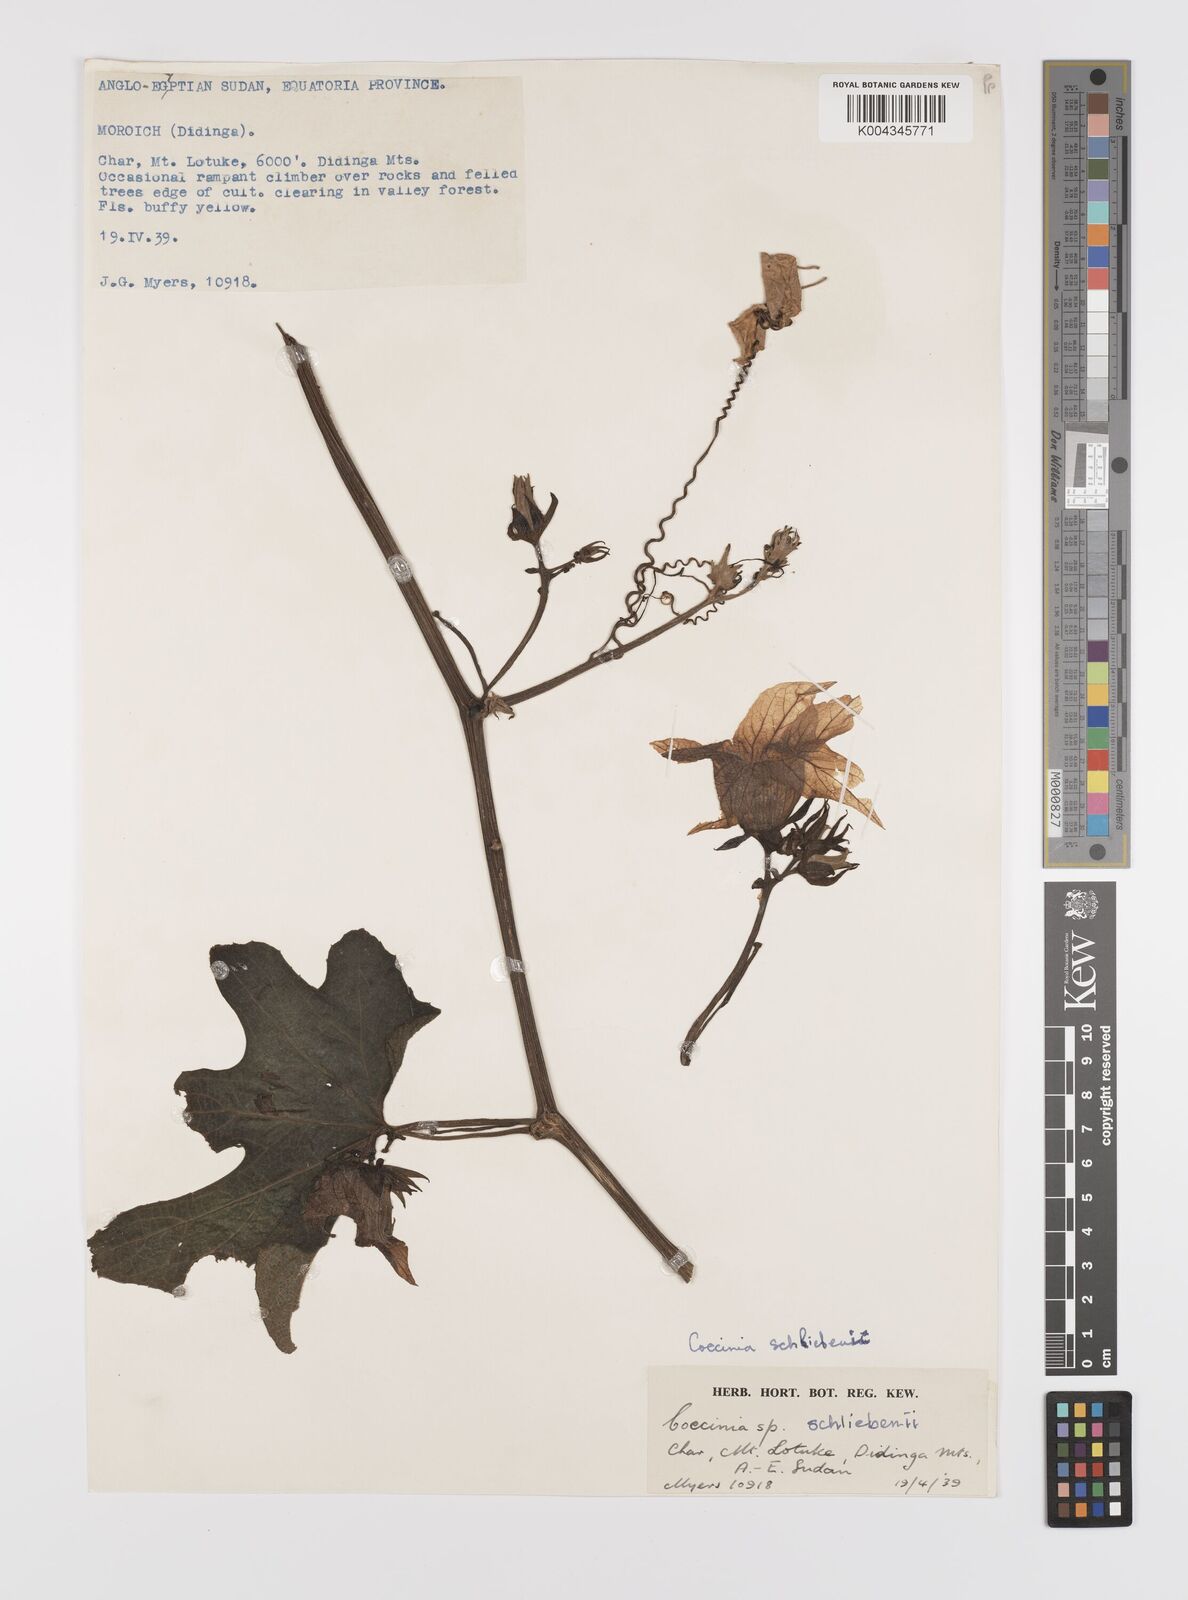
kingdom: Plantae
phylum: Tracheophyta
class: Magnoliopsida
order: Cucurbitales
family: Cucurbitaceae
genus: Coccinia
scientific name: Coccinia schliebenii
